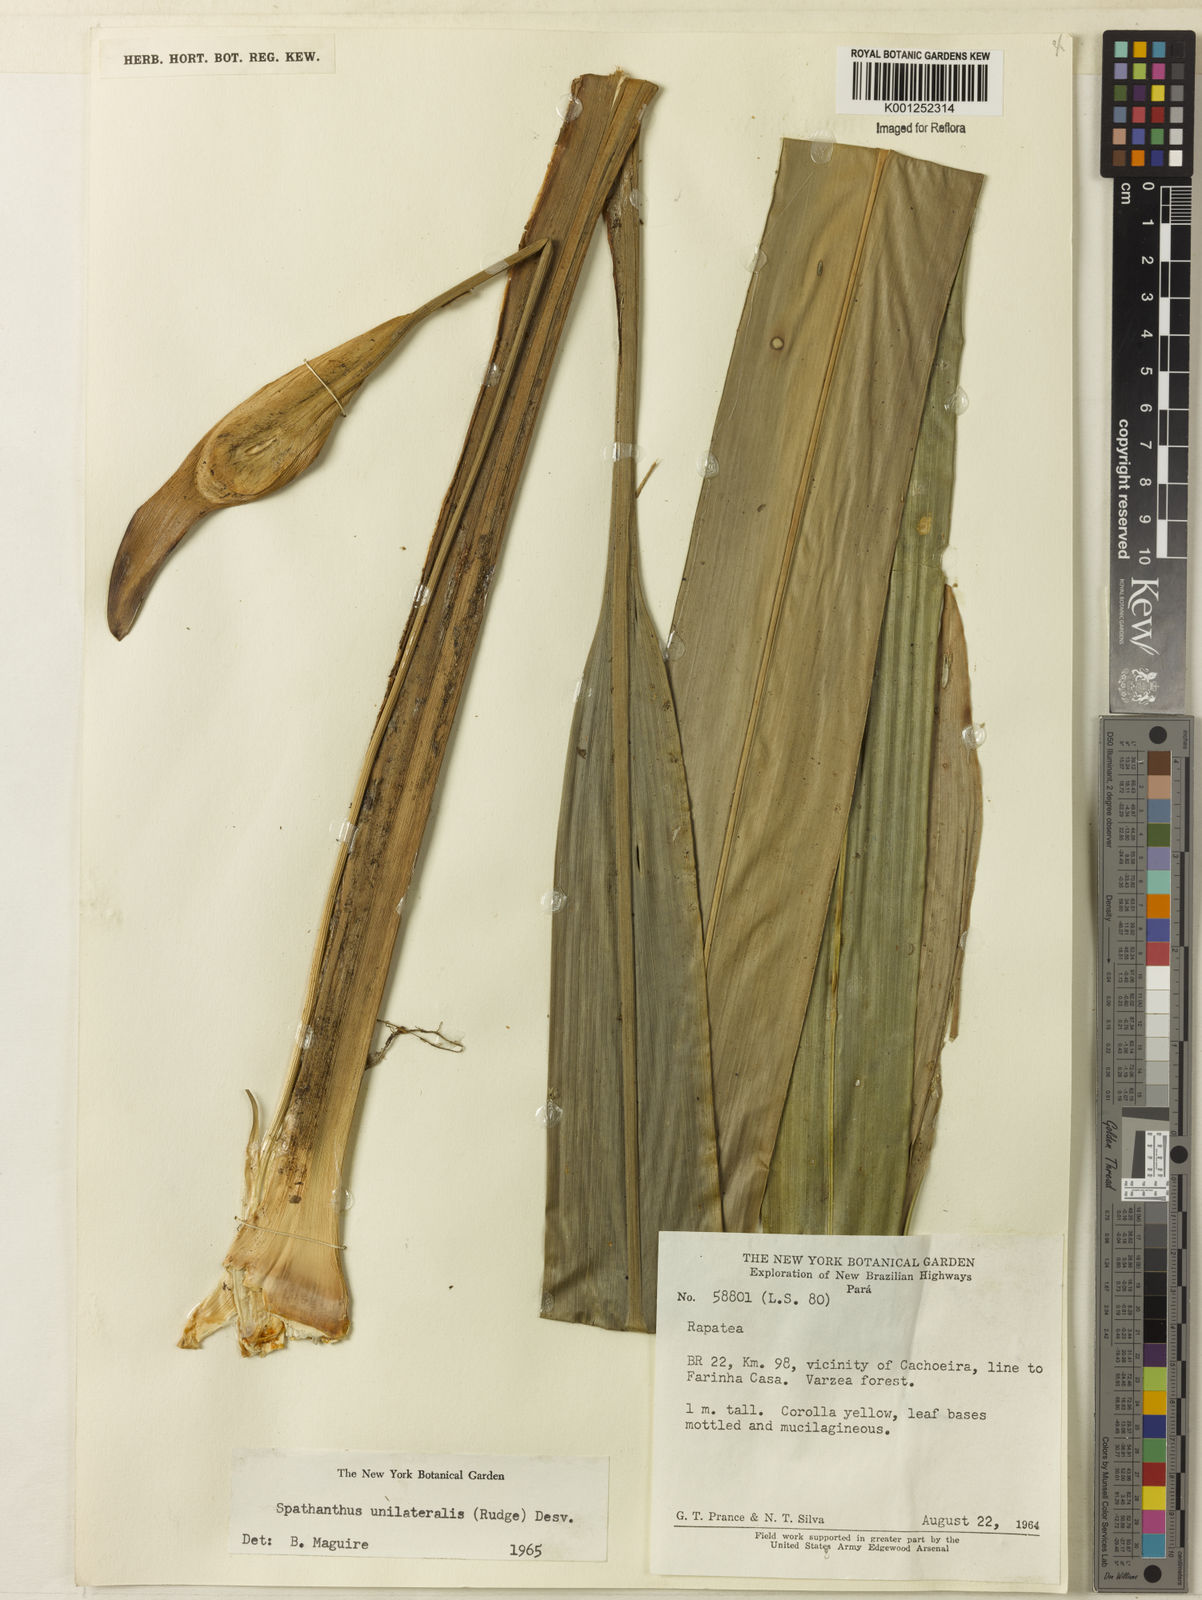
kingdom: Plantae
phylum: Tracheophyta
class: Liliopsida
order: Poales
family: Rapateaceae
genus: Spathanthus
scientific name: Spathanthus unilateralis
